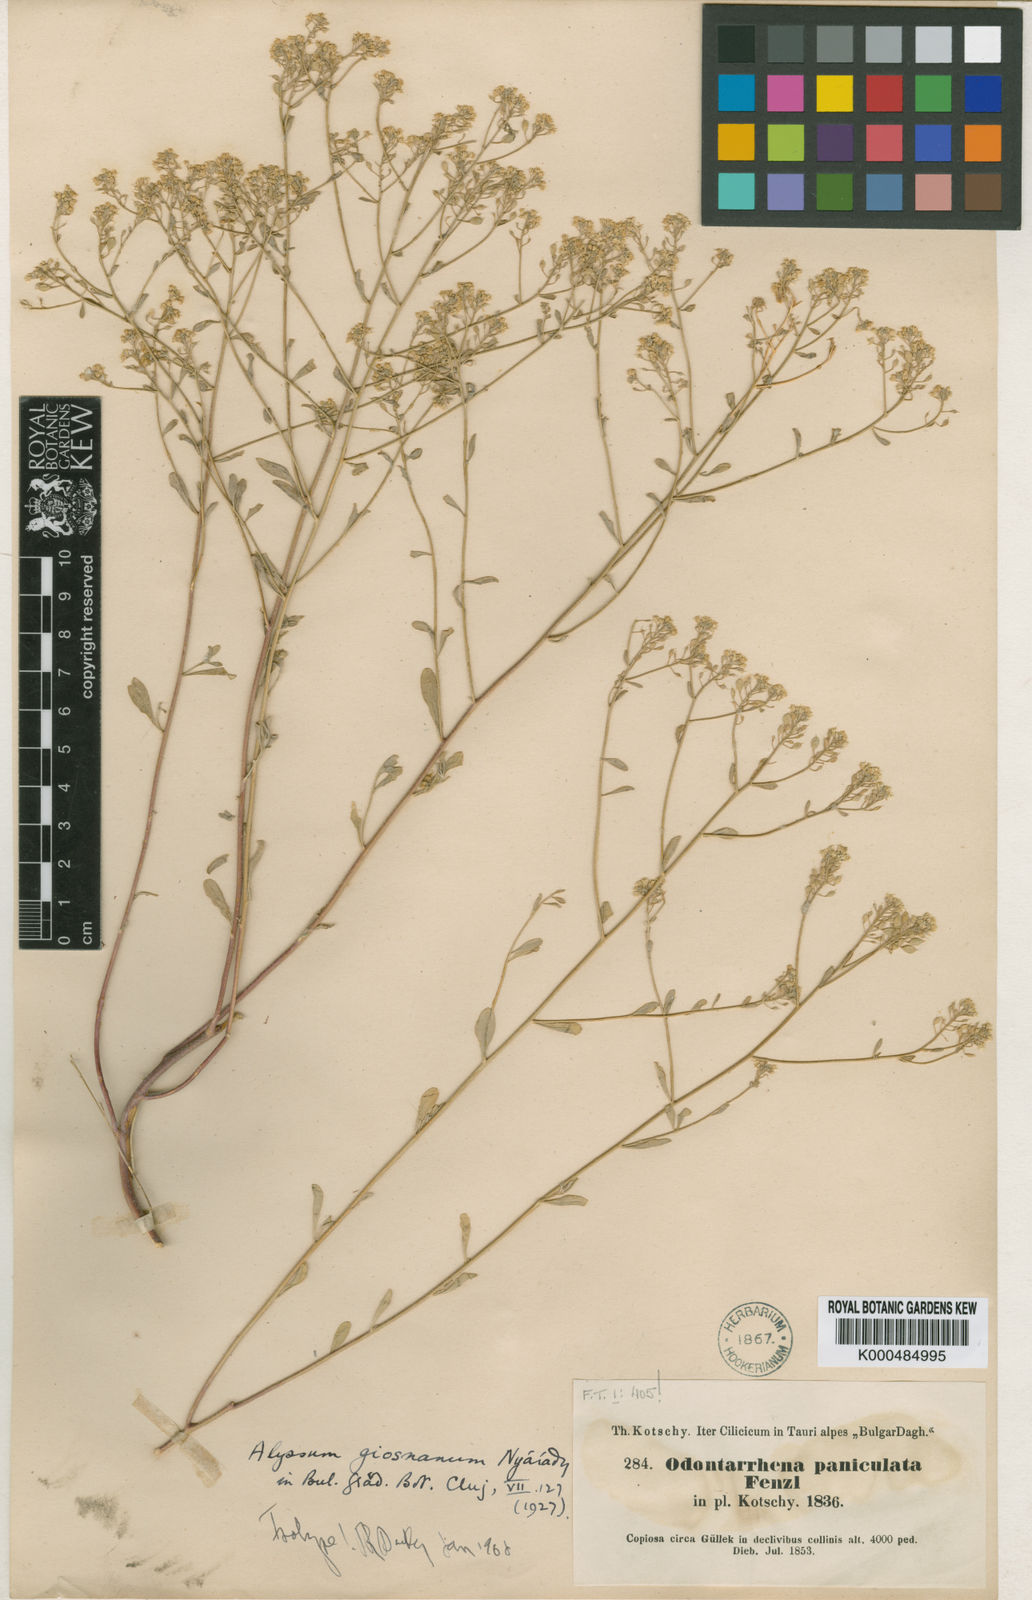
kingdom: Plantae
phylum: Tracheophyta
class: Magnoliopsida
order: Brassicales
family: Brassicaceae
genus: Alyssum
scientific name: Alyssum
